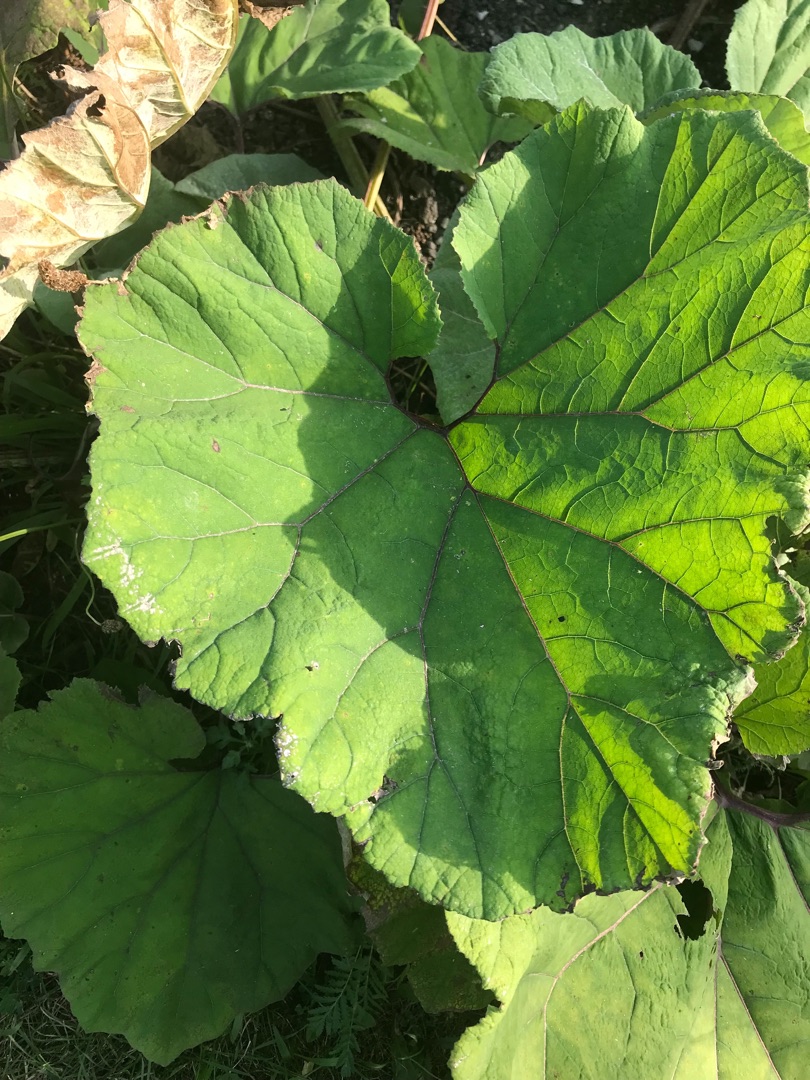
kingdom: Plantae
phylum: Tracheophyta
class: Magnoliopsida
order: Asterales
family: Asteraceae
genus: Petasites
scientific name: Petasites hybridus
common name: Rød hestehov
